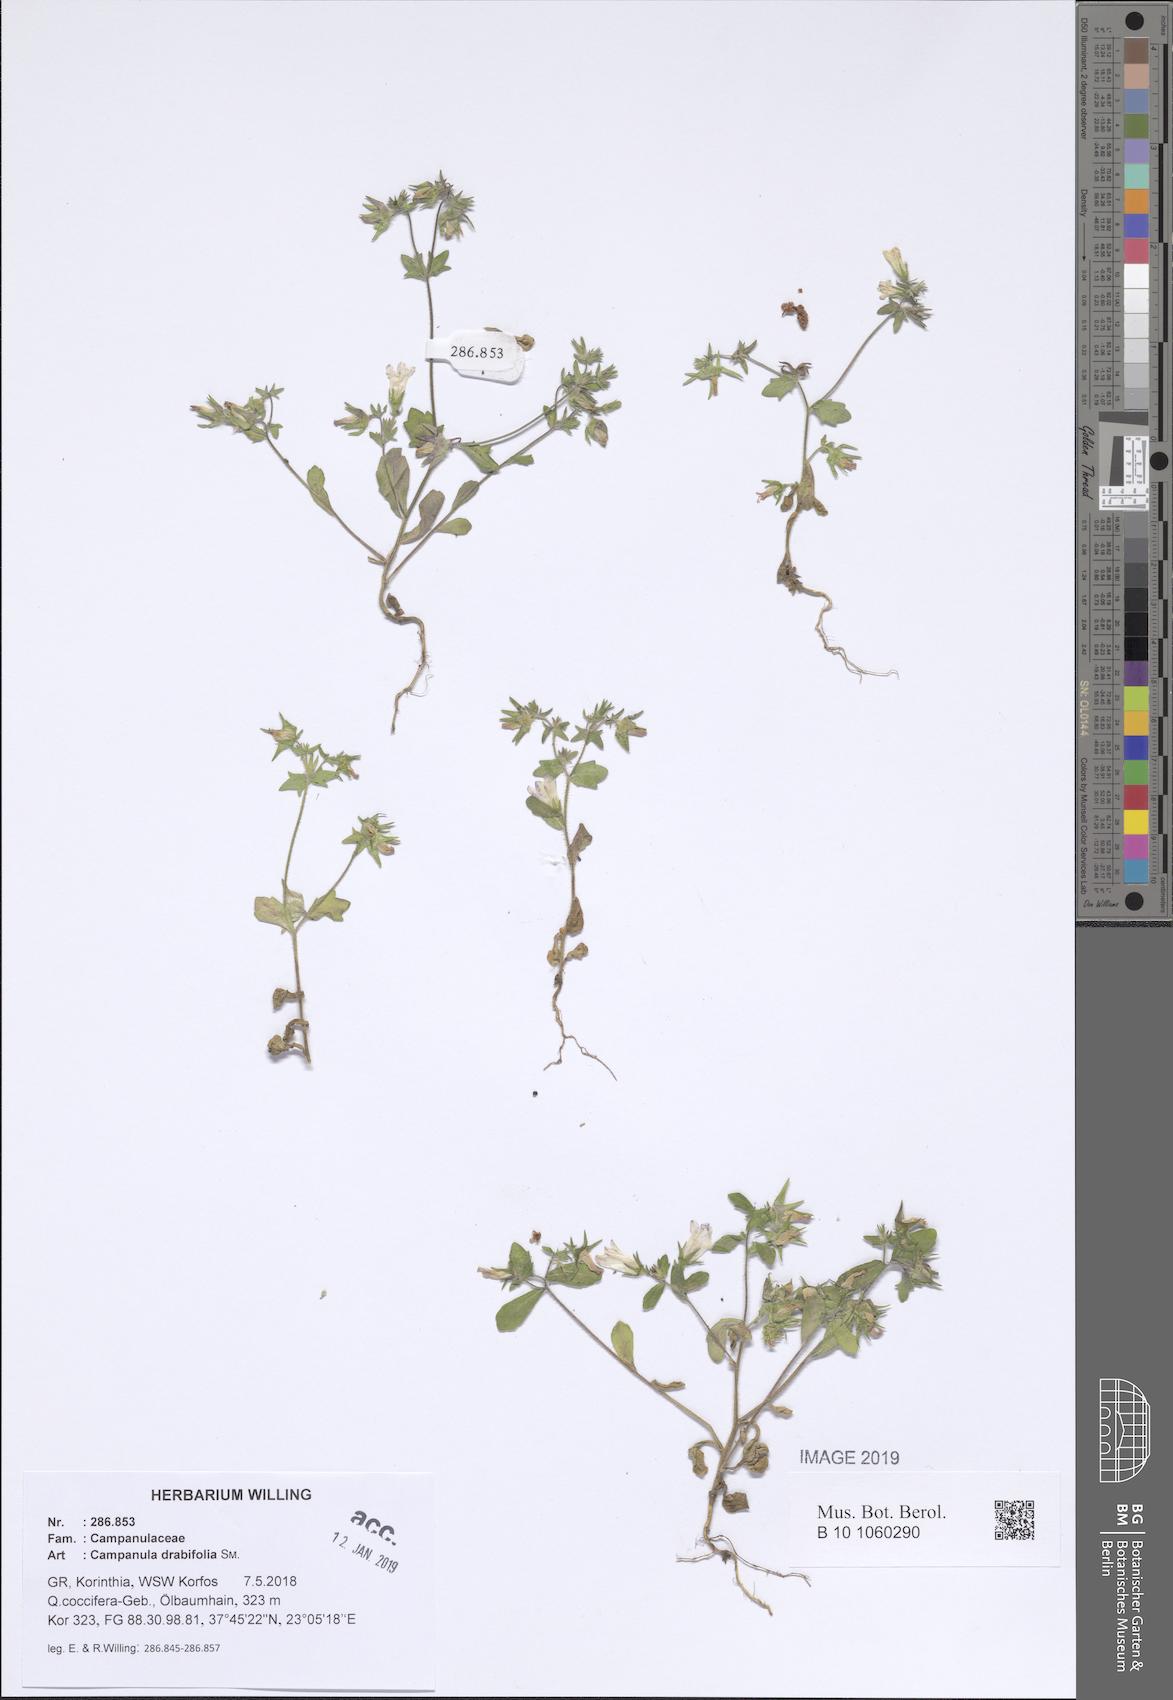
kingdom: Plantae
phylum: Tracheophyta
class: Magnoliopsida
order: Asterales
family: Campanulaceae
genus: Campanula
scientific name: Campanula drabifolia
